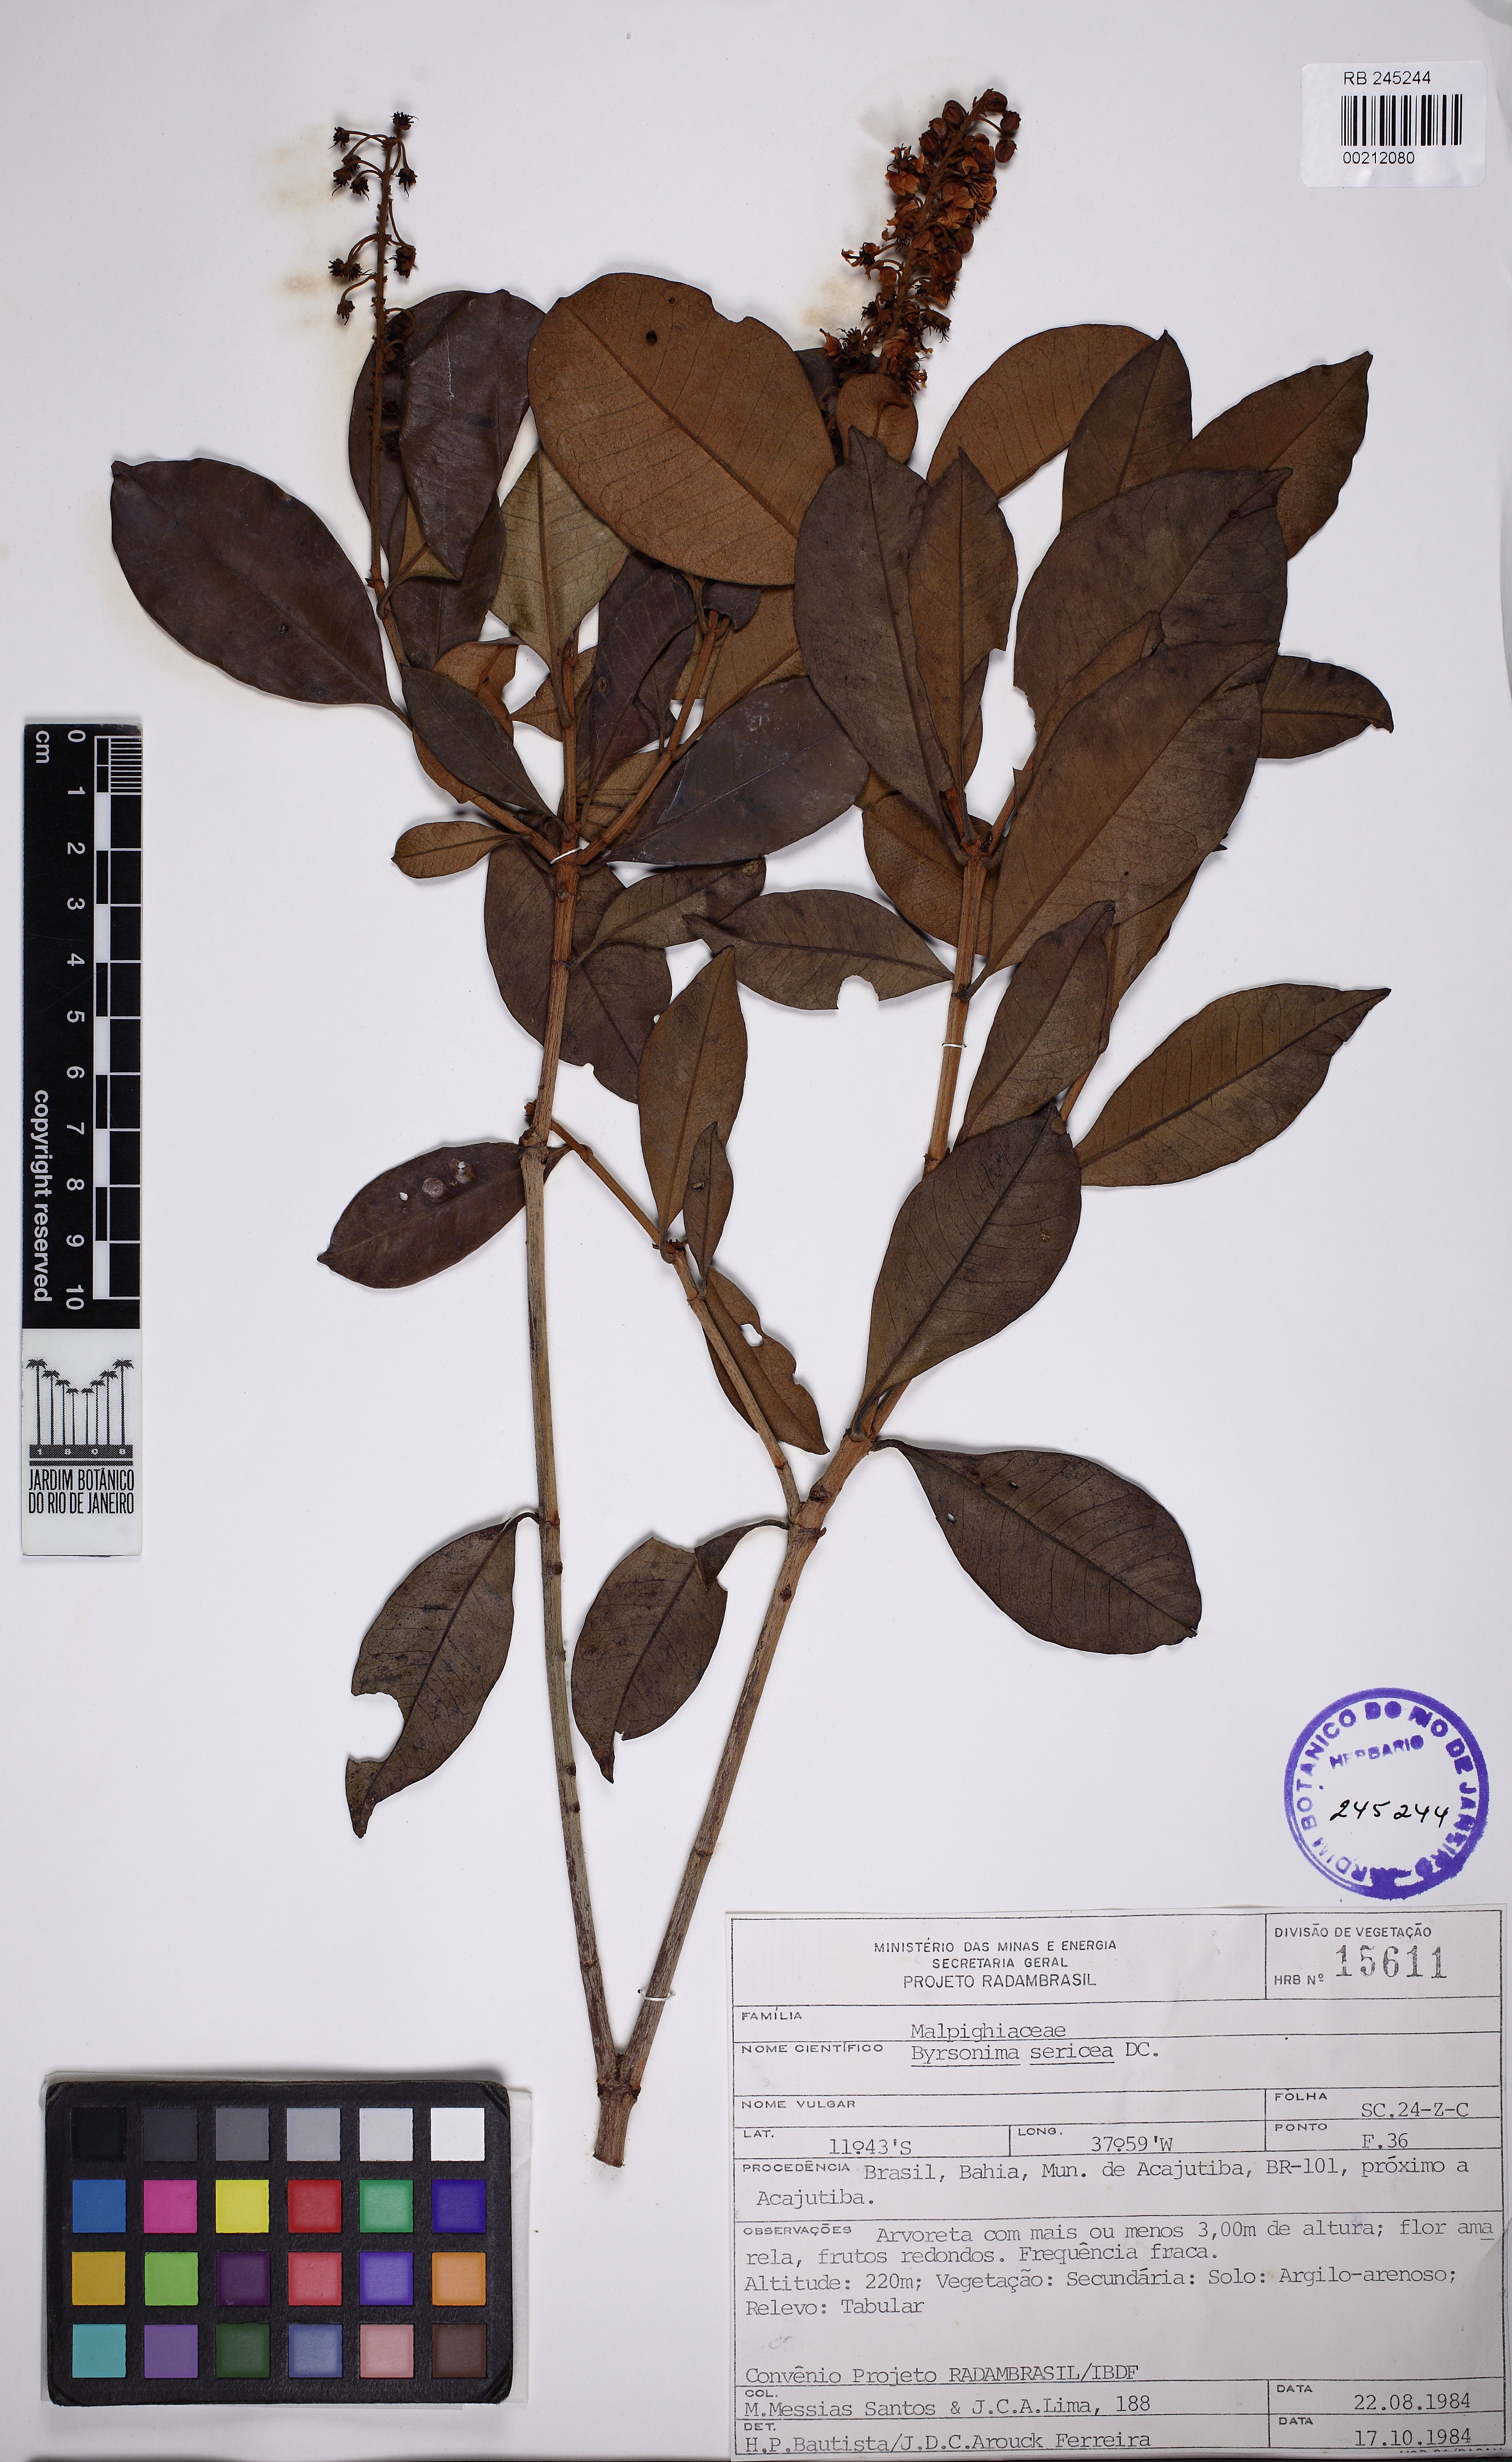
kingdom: Plantae
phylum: Tracheophyta
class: Magnoliopsida
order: Malpighiales
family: Malpighiaceae
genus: Byrsonima
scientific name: Byrsonima sericea
